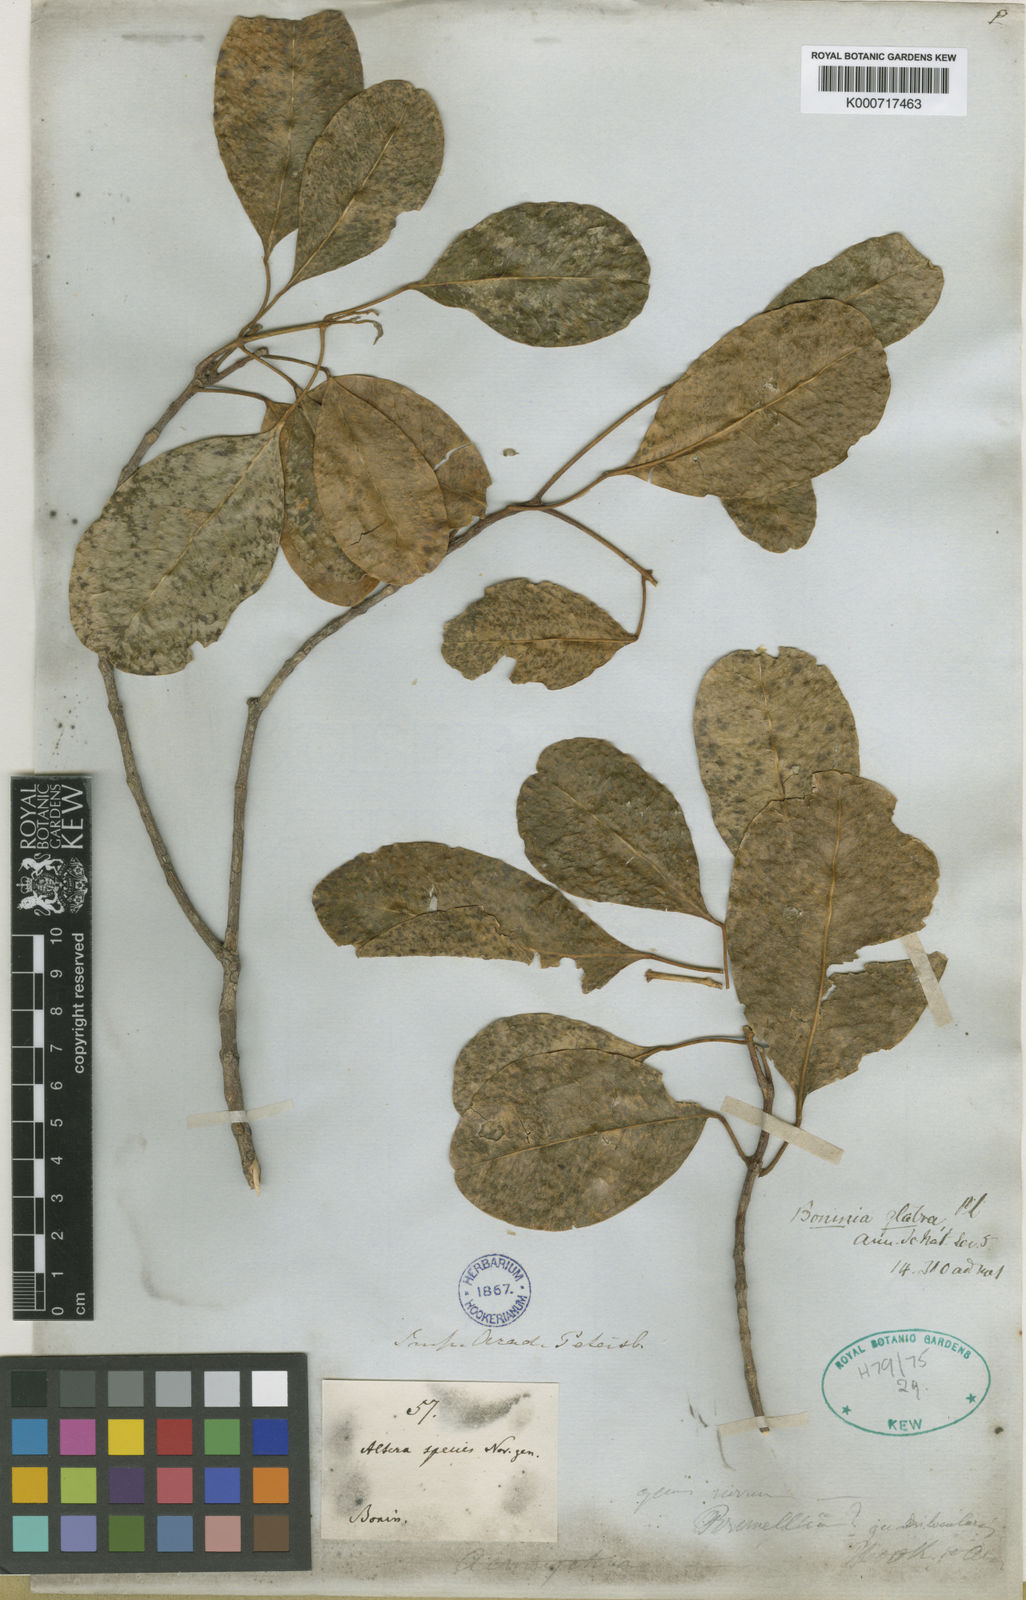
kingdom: Plantae
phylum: Tracheophyta
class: Magnoliopsida
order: Sapindales
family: Rutaceae
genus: Melicope
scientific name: Melicope quadrilocularis
